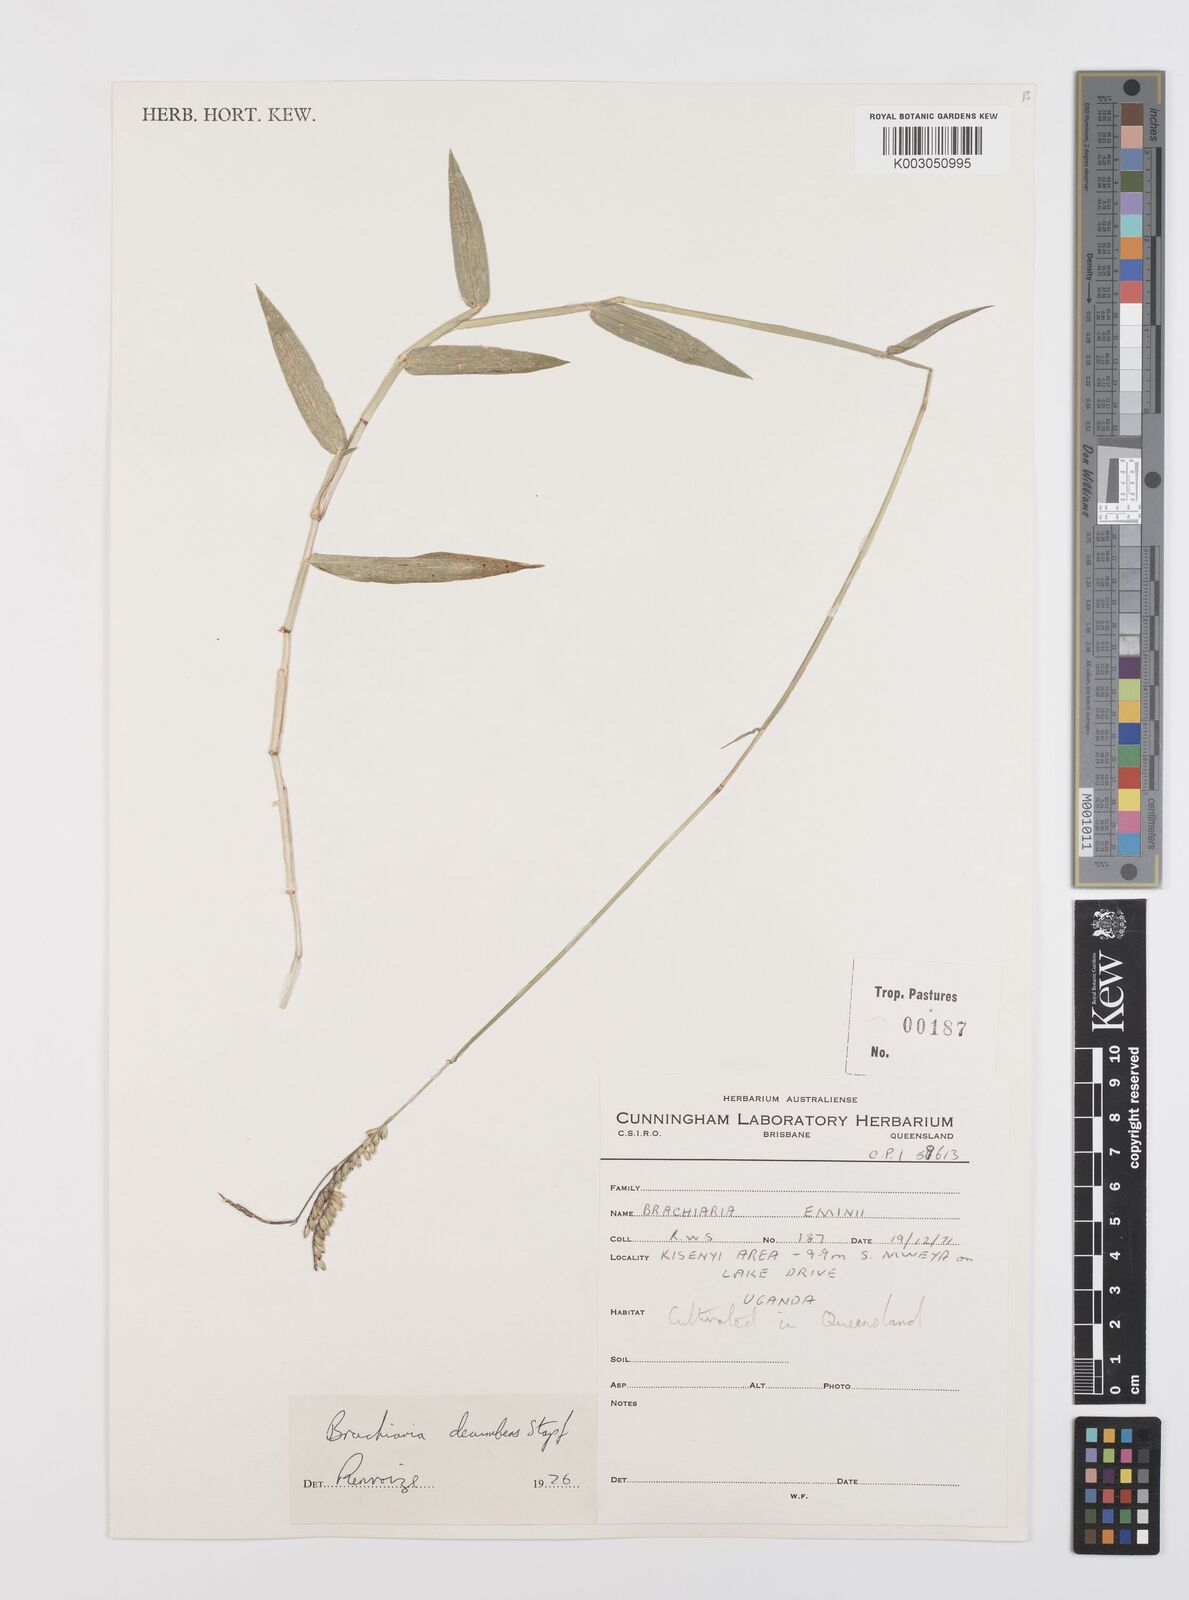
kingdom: Plantae
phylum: Tracheophyta
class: Liliopsida
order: Poales
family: Poaceae
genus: Urochloa
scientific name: Urochloa brizantha
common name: Palisade signalgrass
